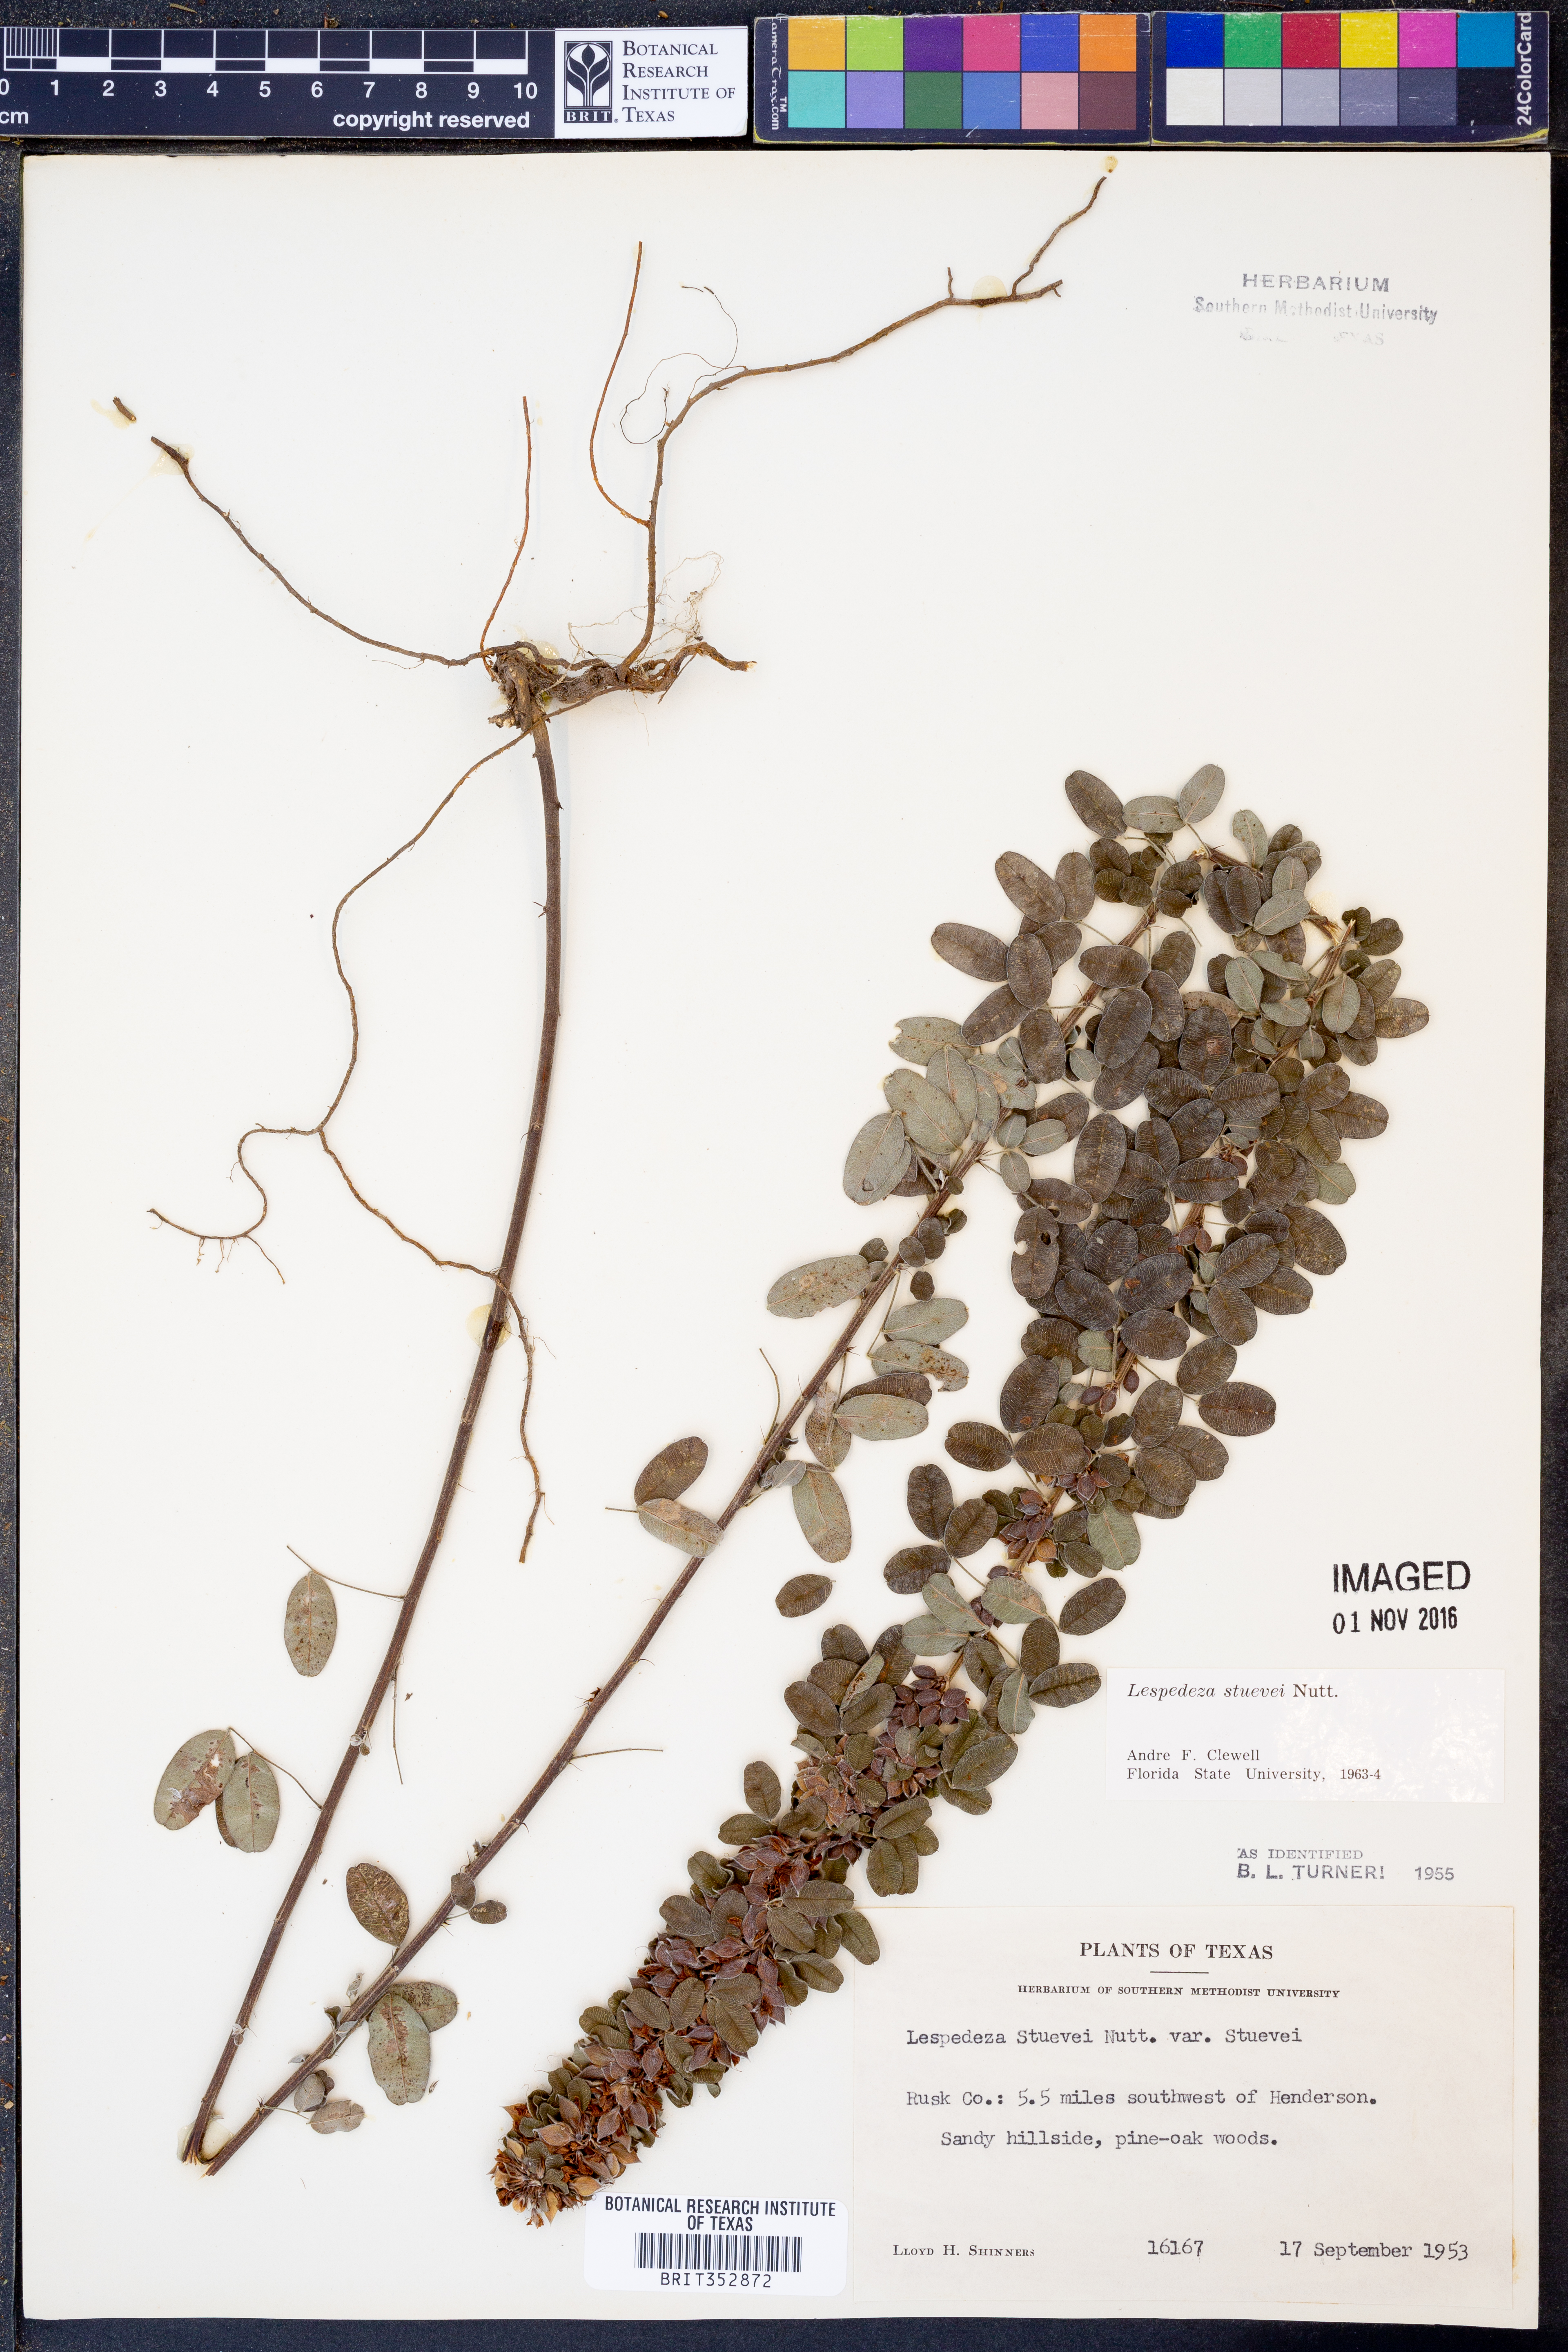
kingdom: Plantae
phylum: Tracheophyta
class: Magnoliopsida
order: Fabales
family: Fabaceae
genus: Lespedeza
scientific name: Lespedeza stuevei
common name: Tall bush-clover
